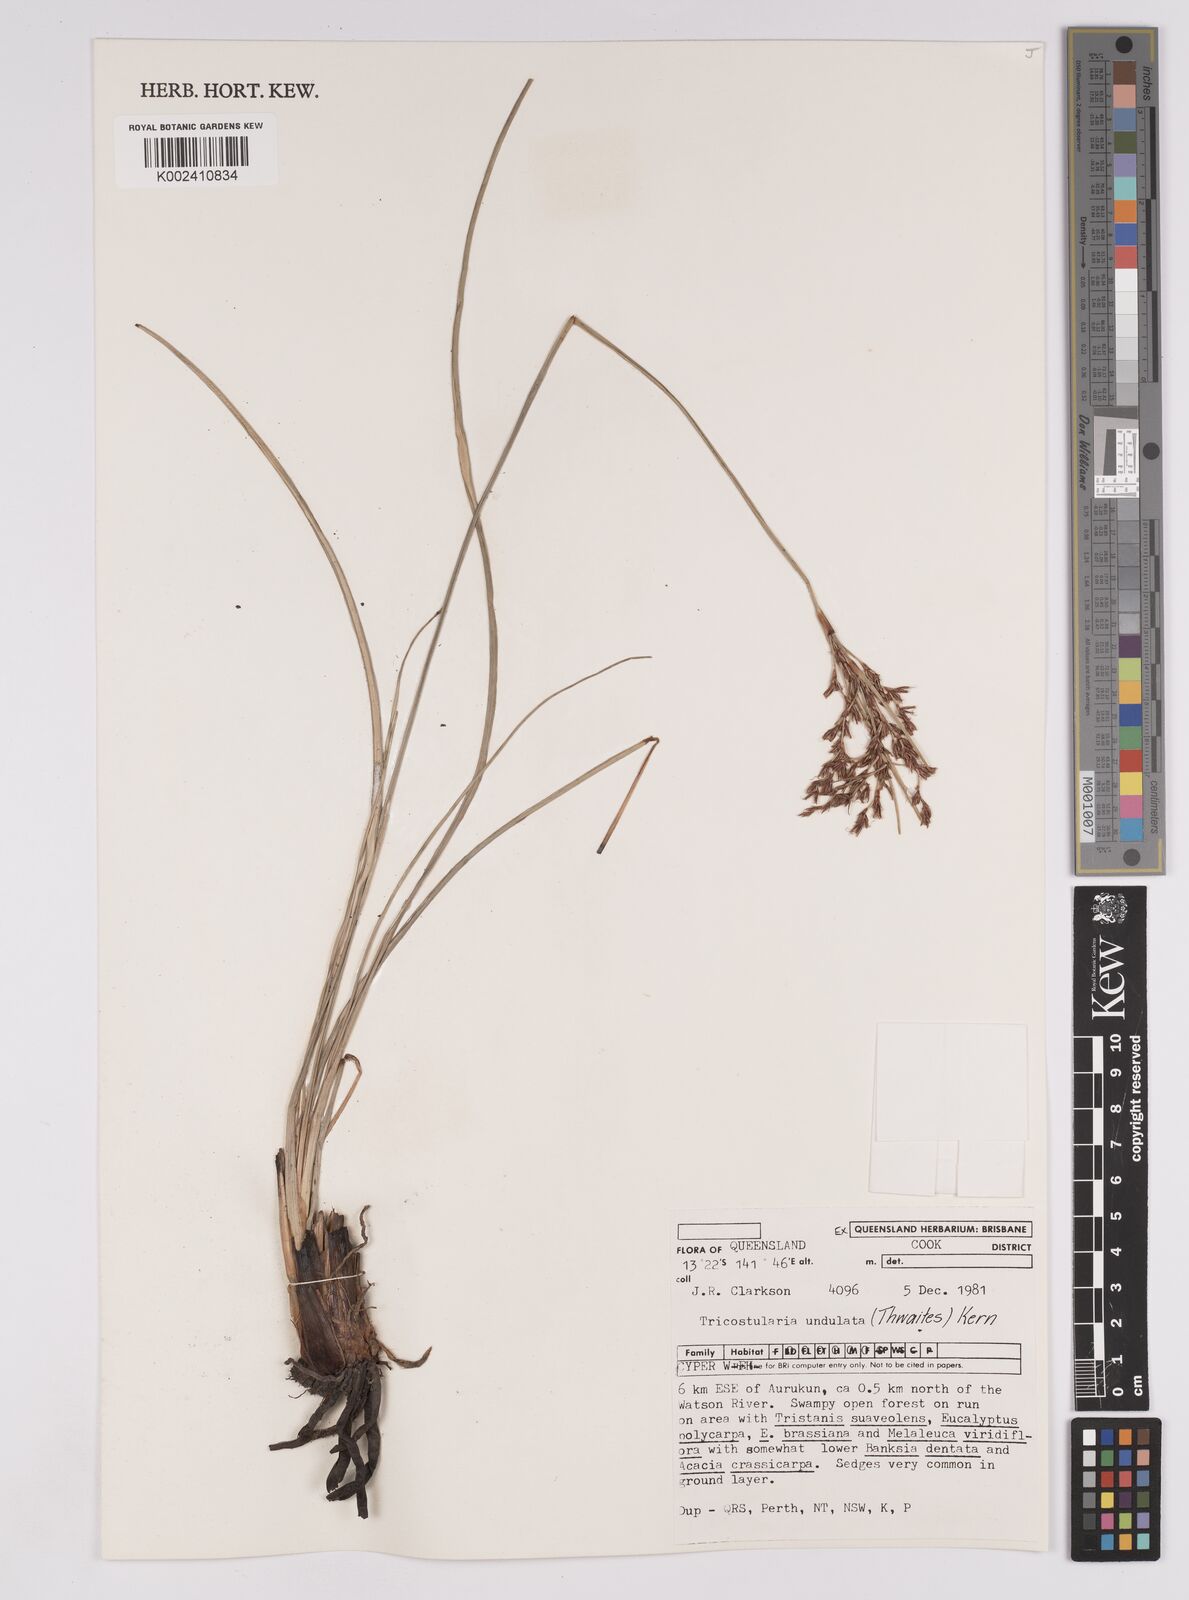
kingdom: Plantae
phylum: Tracheophyta
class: Liliopsida
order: Poales
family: Cyperaceae
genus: Anthelepis
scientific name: Anthelepis undulata
